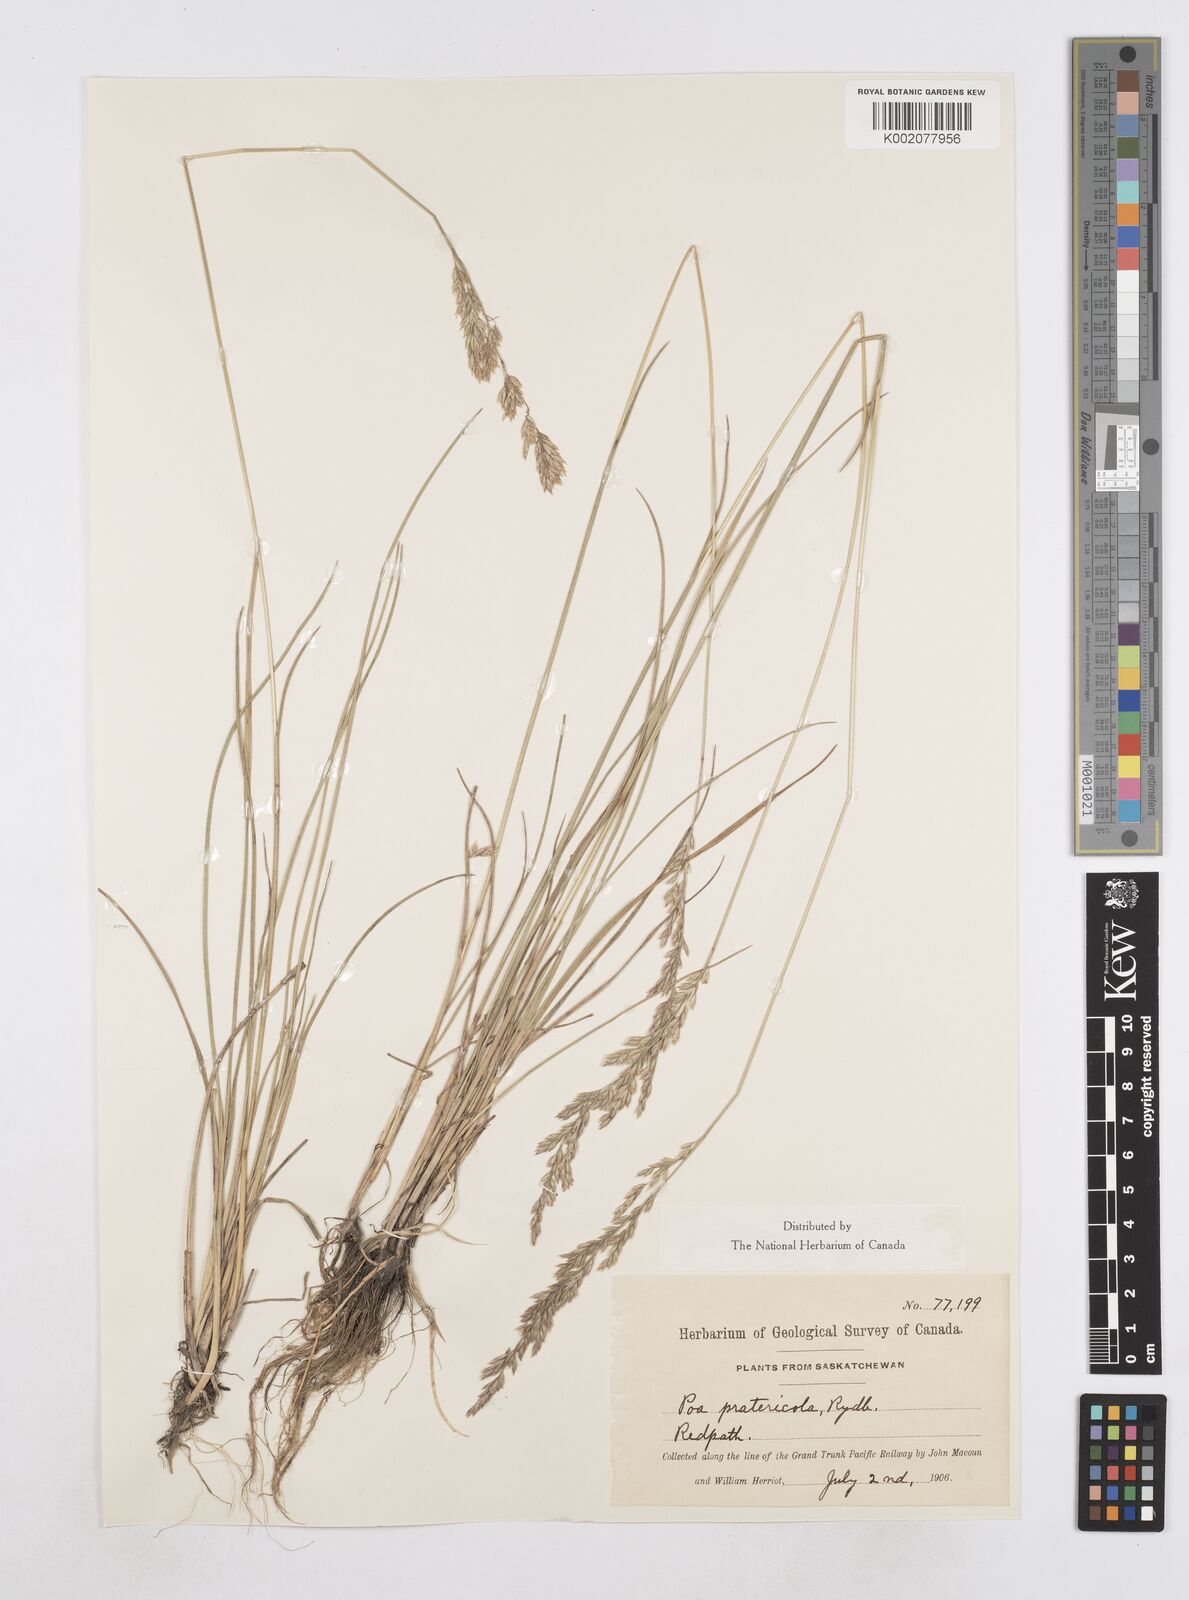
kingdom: Plantae
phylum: Tracheophyta
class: Liliopsida
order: Poales
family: Poaceae
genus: Poa
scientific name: Poa arida
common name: Plains bluegrass
